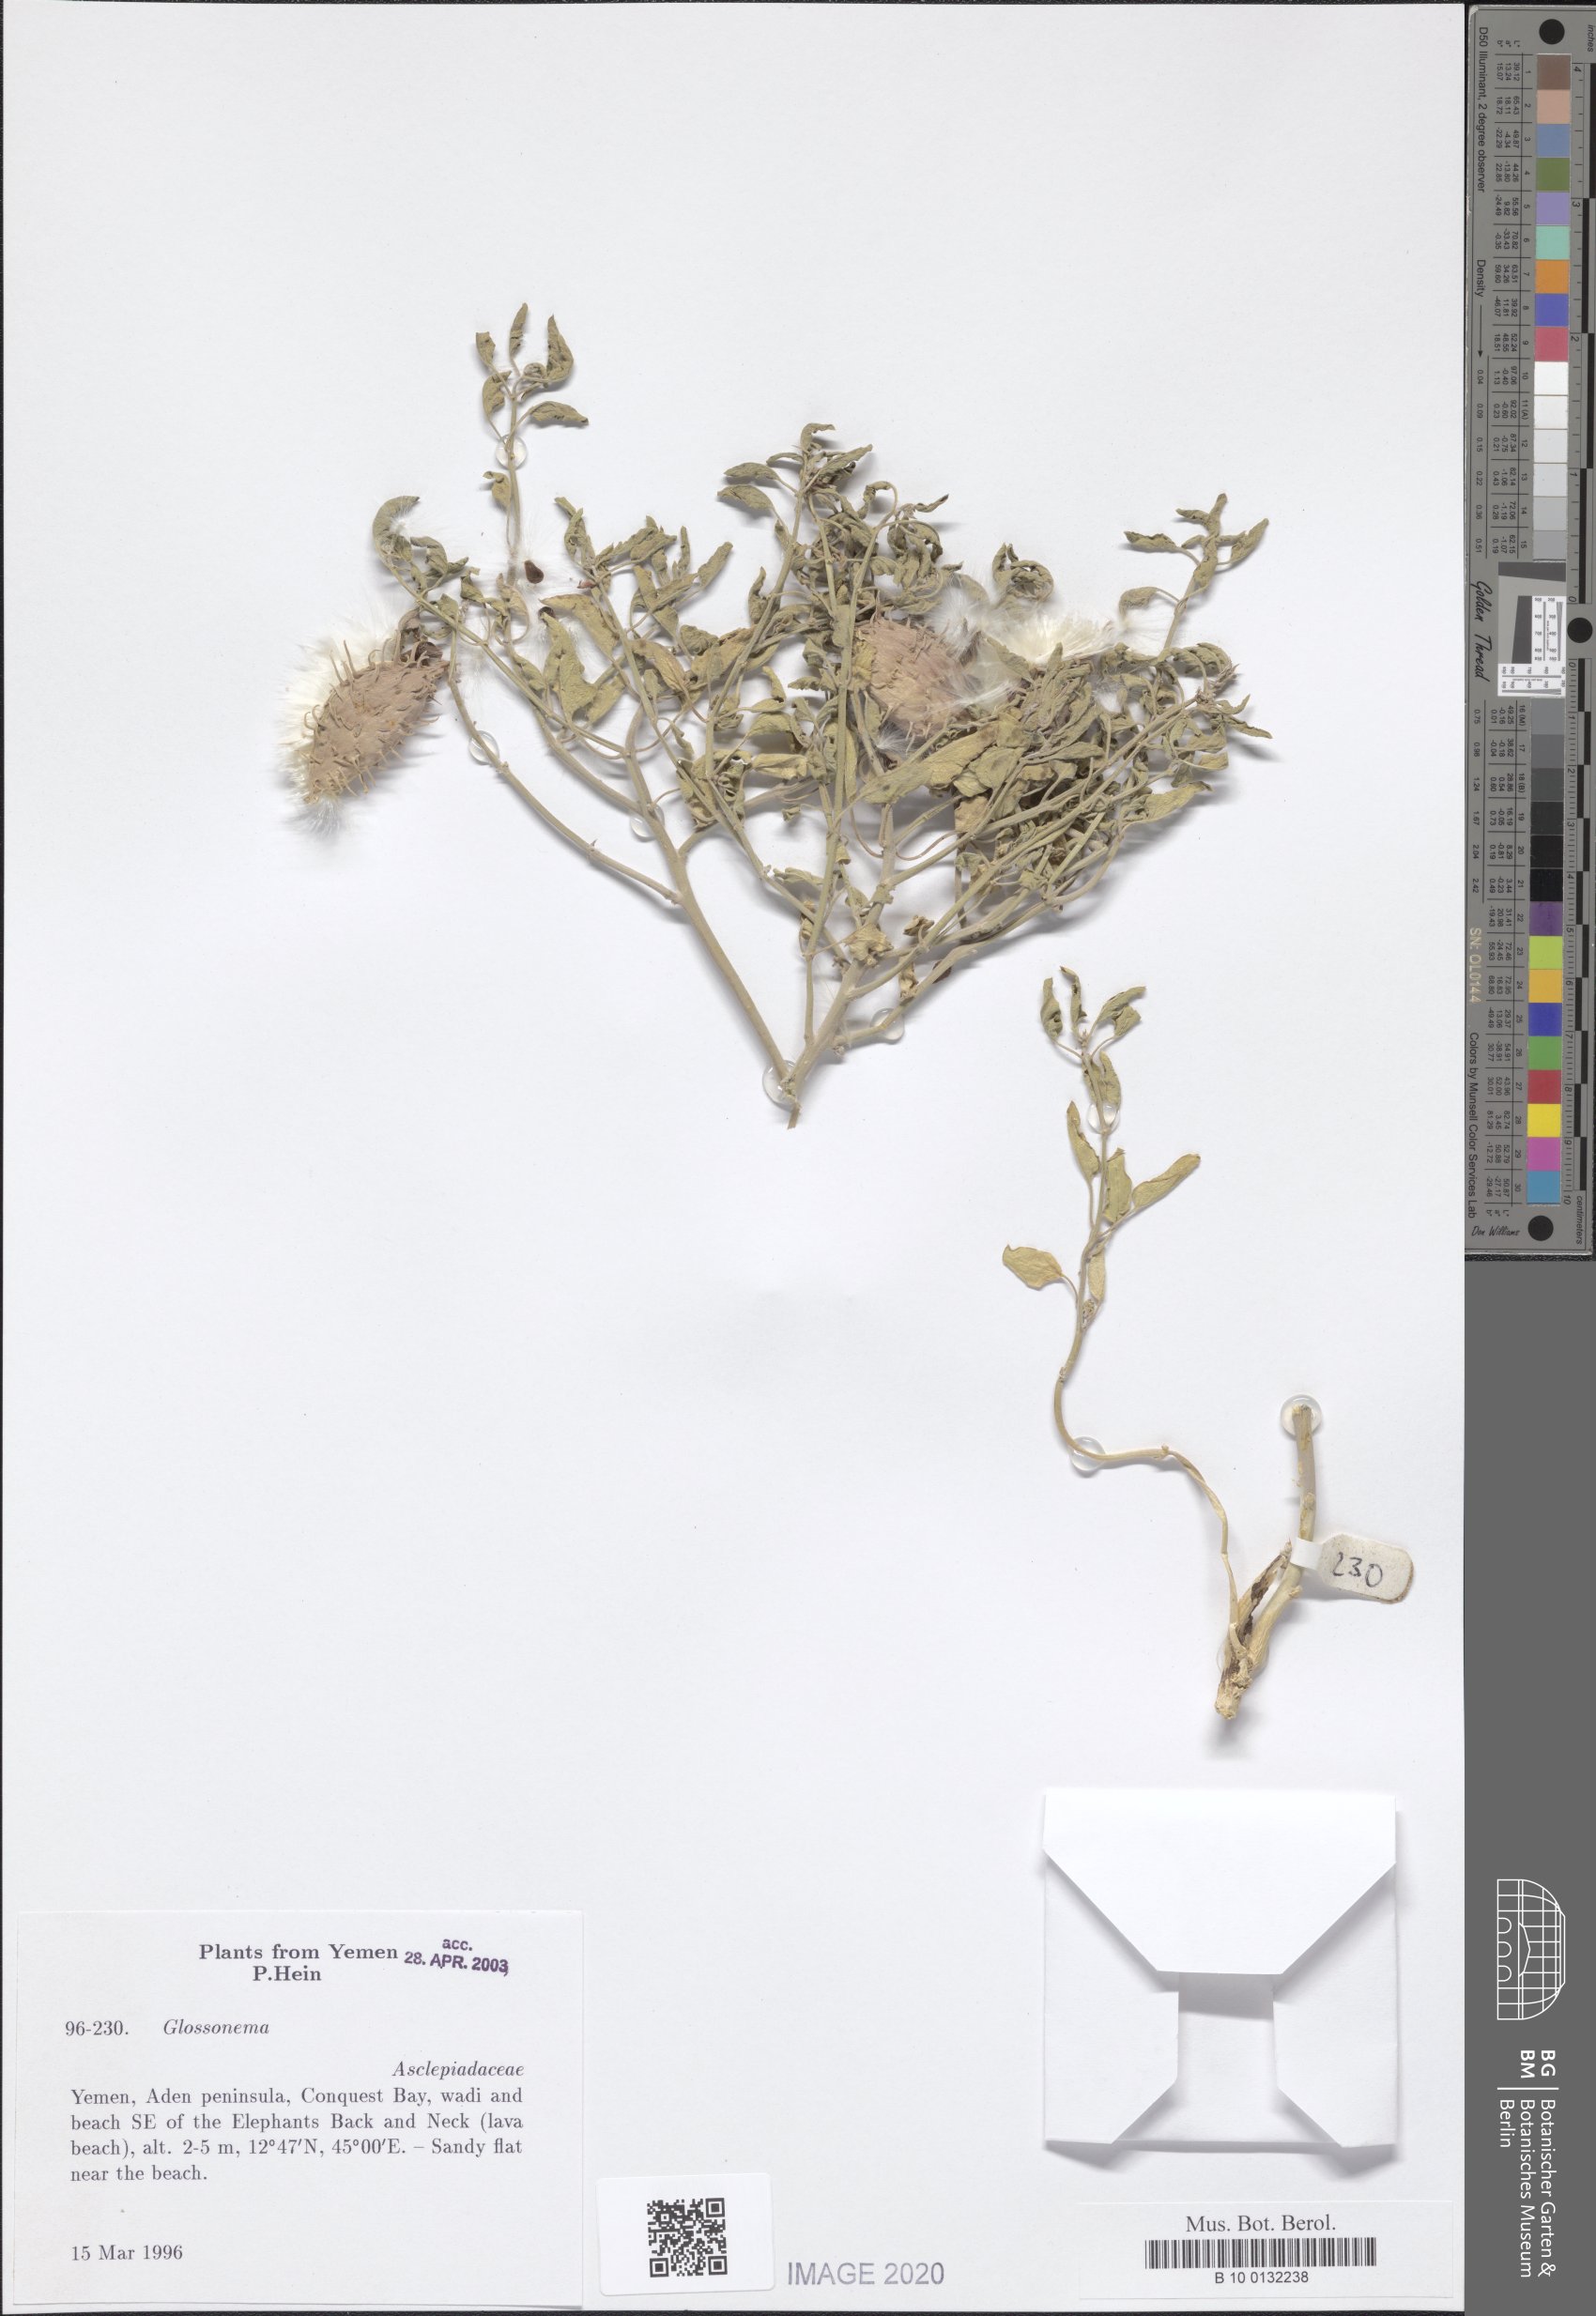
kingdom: Plantae
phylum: Tracheophyta
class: Magnoliopsida
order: Gentianales
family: Apocynaceae
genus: Cynanchum
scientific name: Cynanchum boveanum
